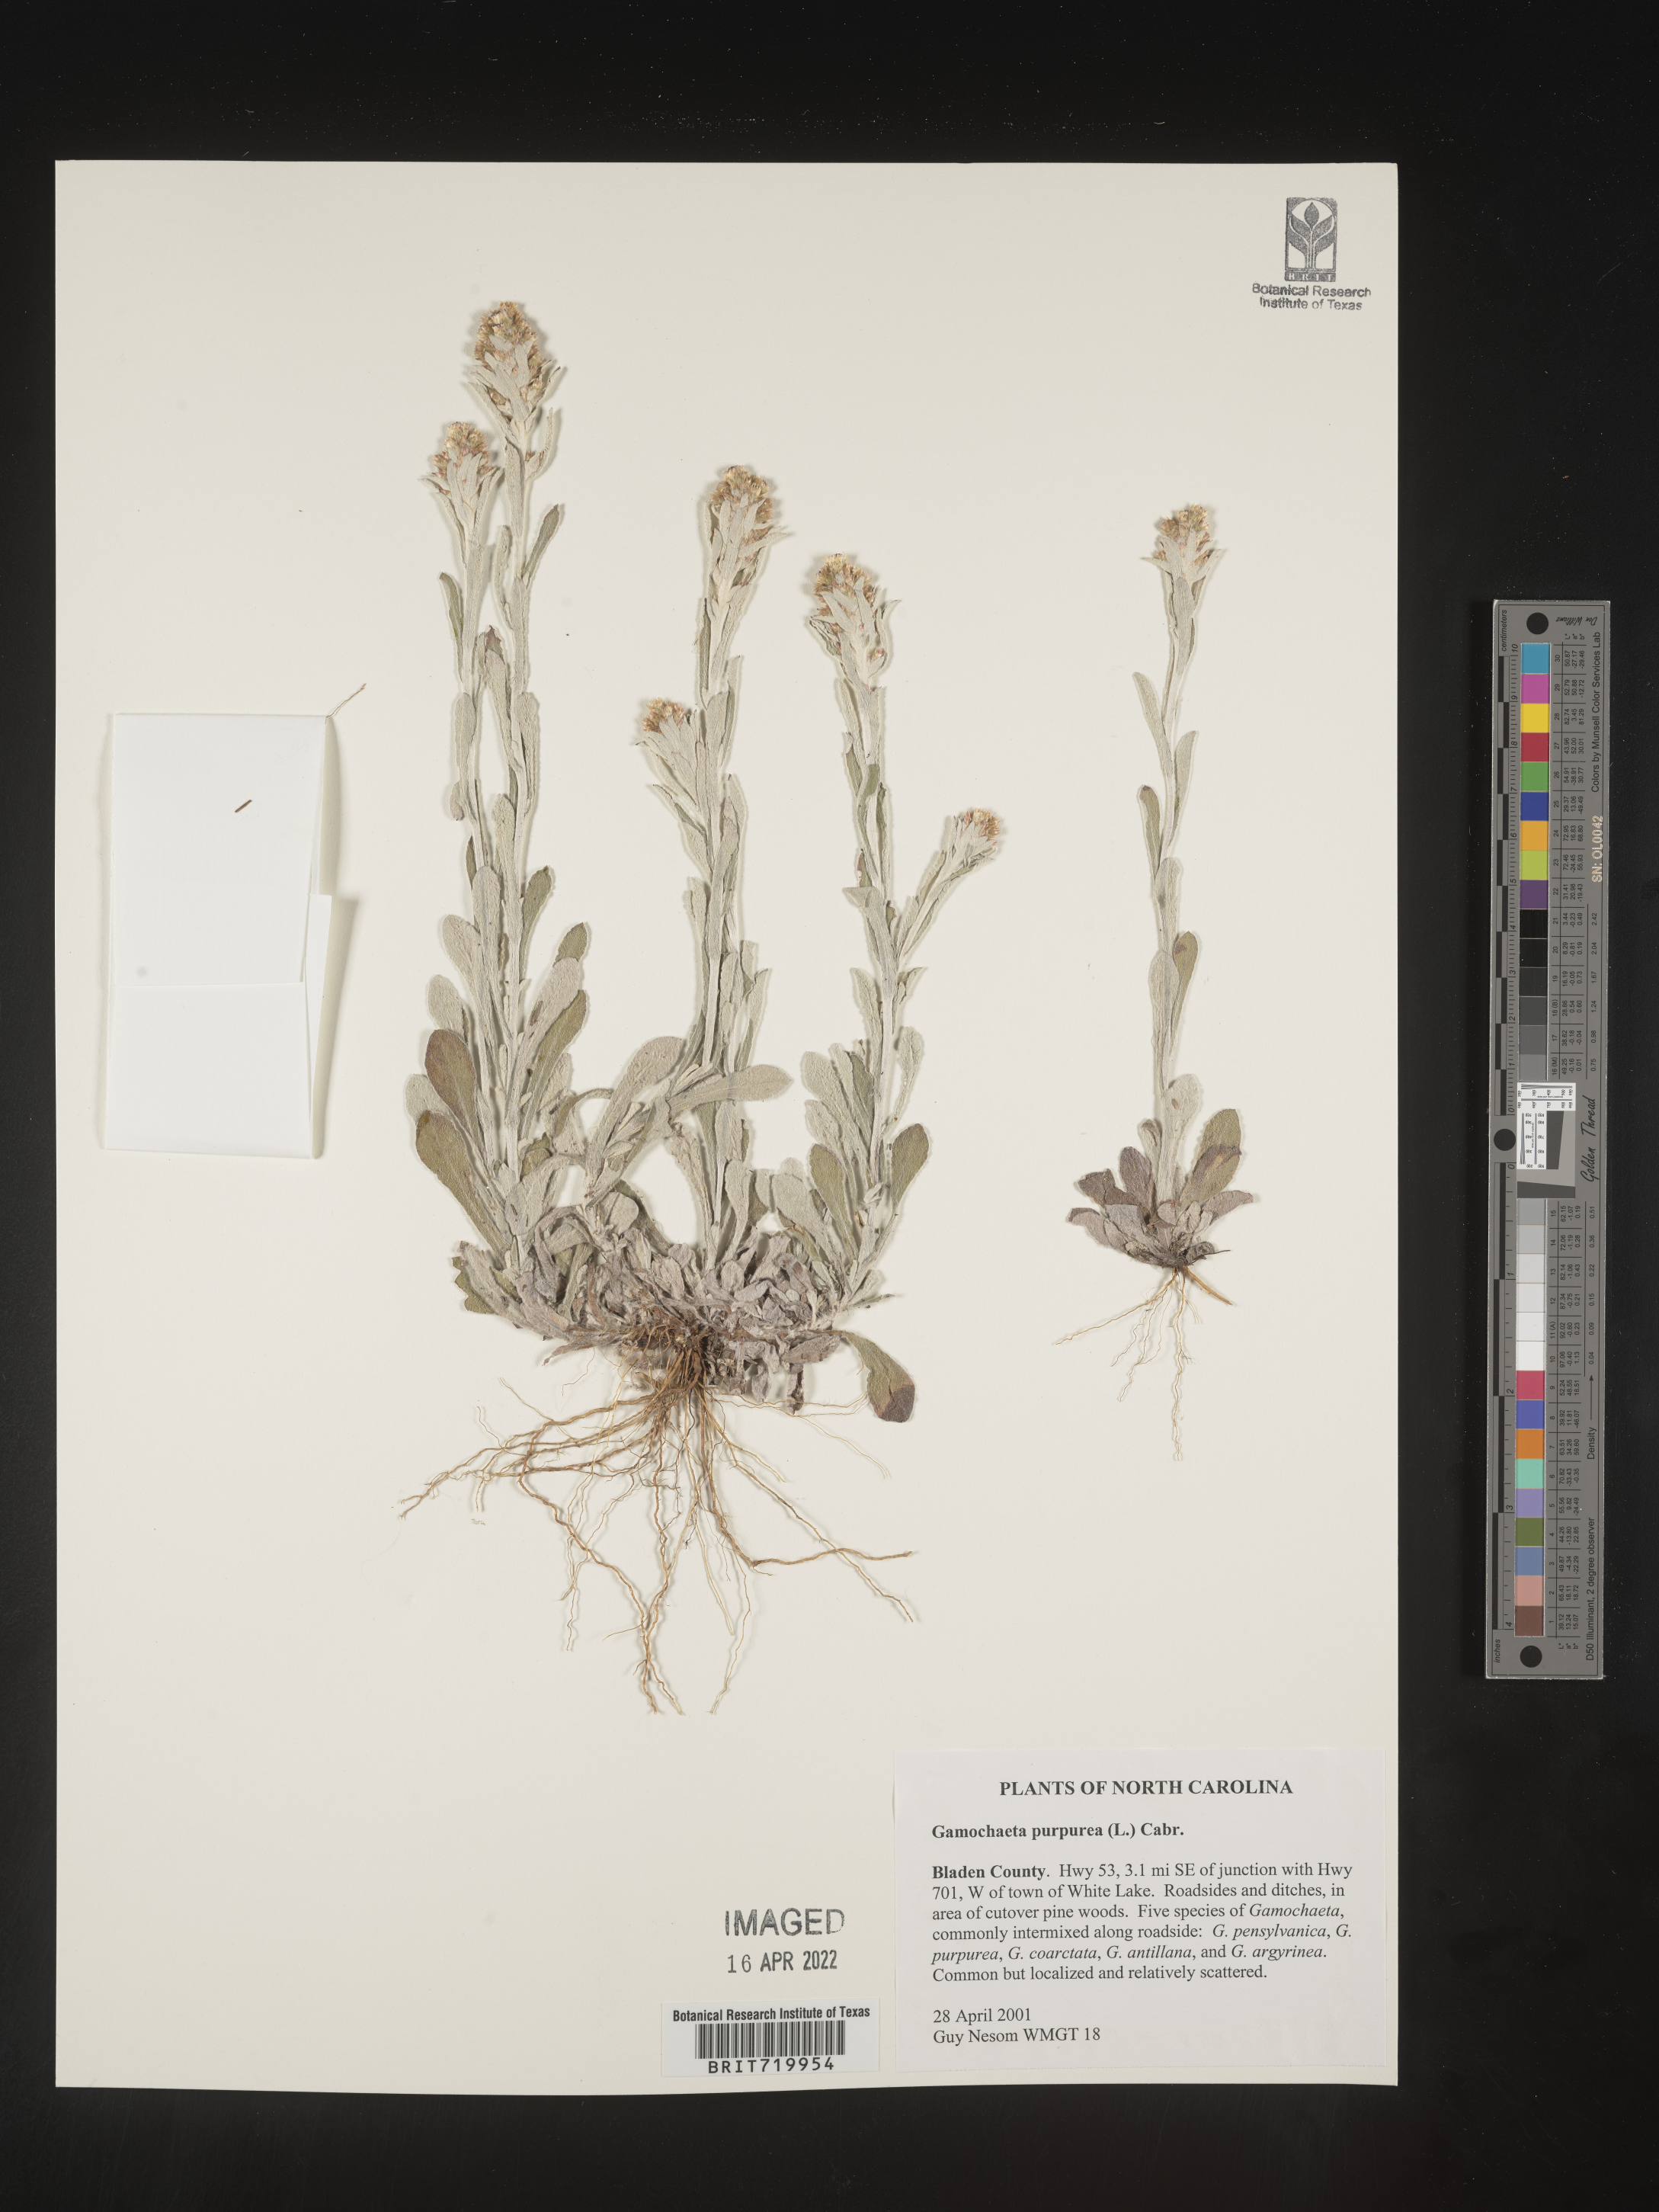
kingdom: Plantae
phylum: Tracheophyta
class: Magnoliopsida
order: Asterales
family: Asteraceae
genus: Gamochaeta
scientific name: Gamochaeta purpurea
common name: Purple cudweed
